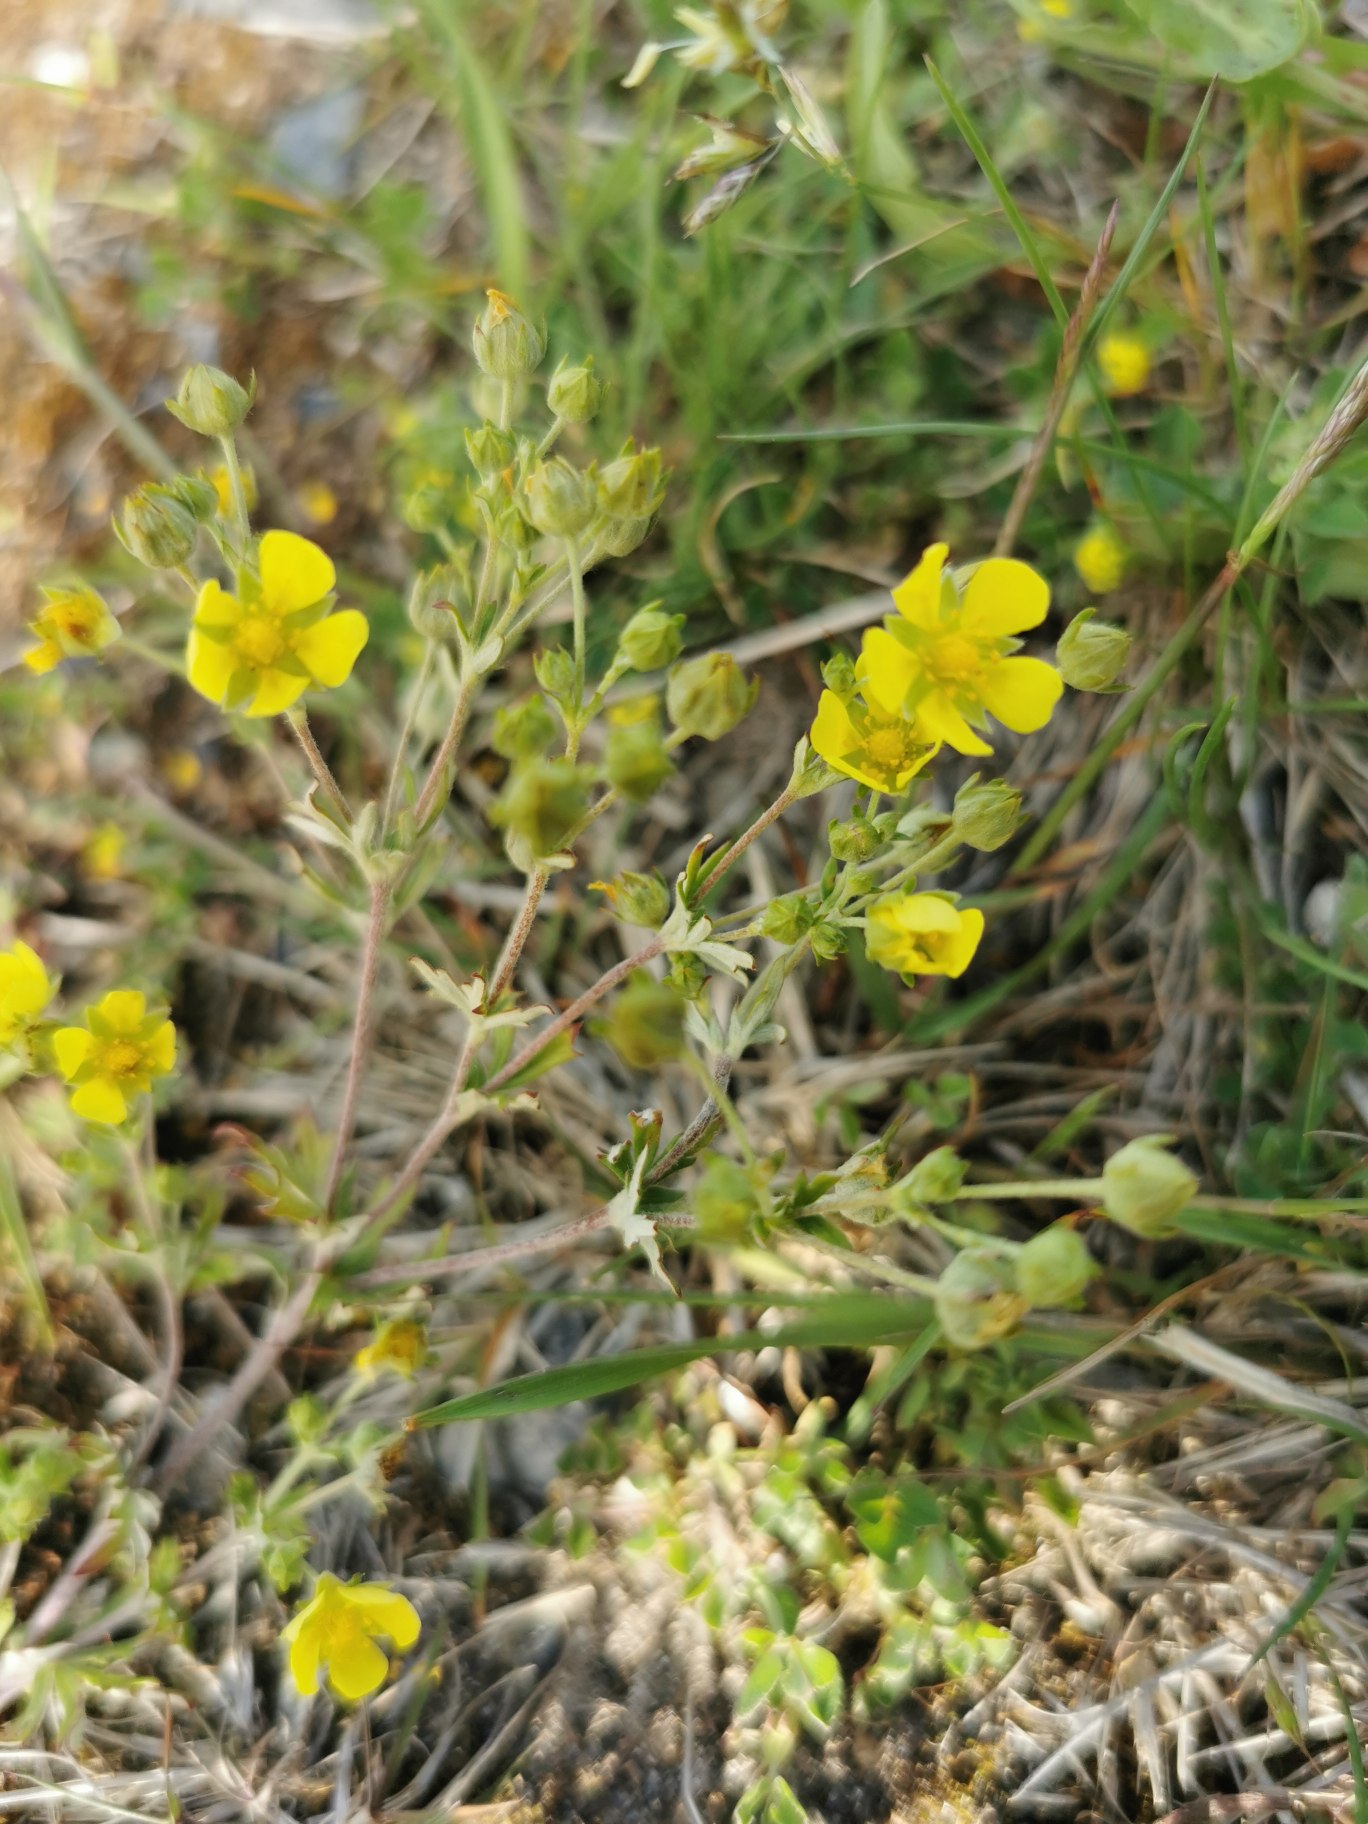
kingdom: Plantae
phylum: Tracheophyta
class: Magnoliopsida
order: Rosales
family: Rosaceae
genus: Potentilla
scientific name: Potentilla argentea
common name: Sølv-potentil
